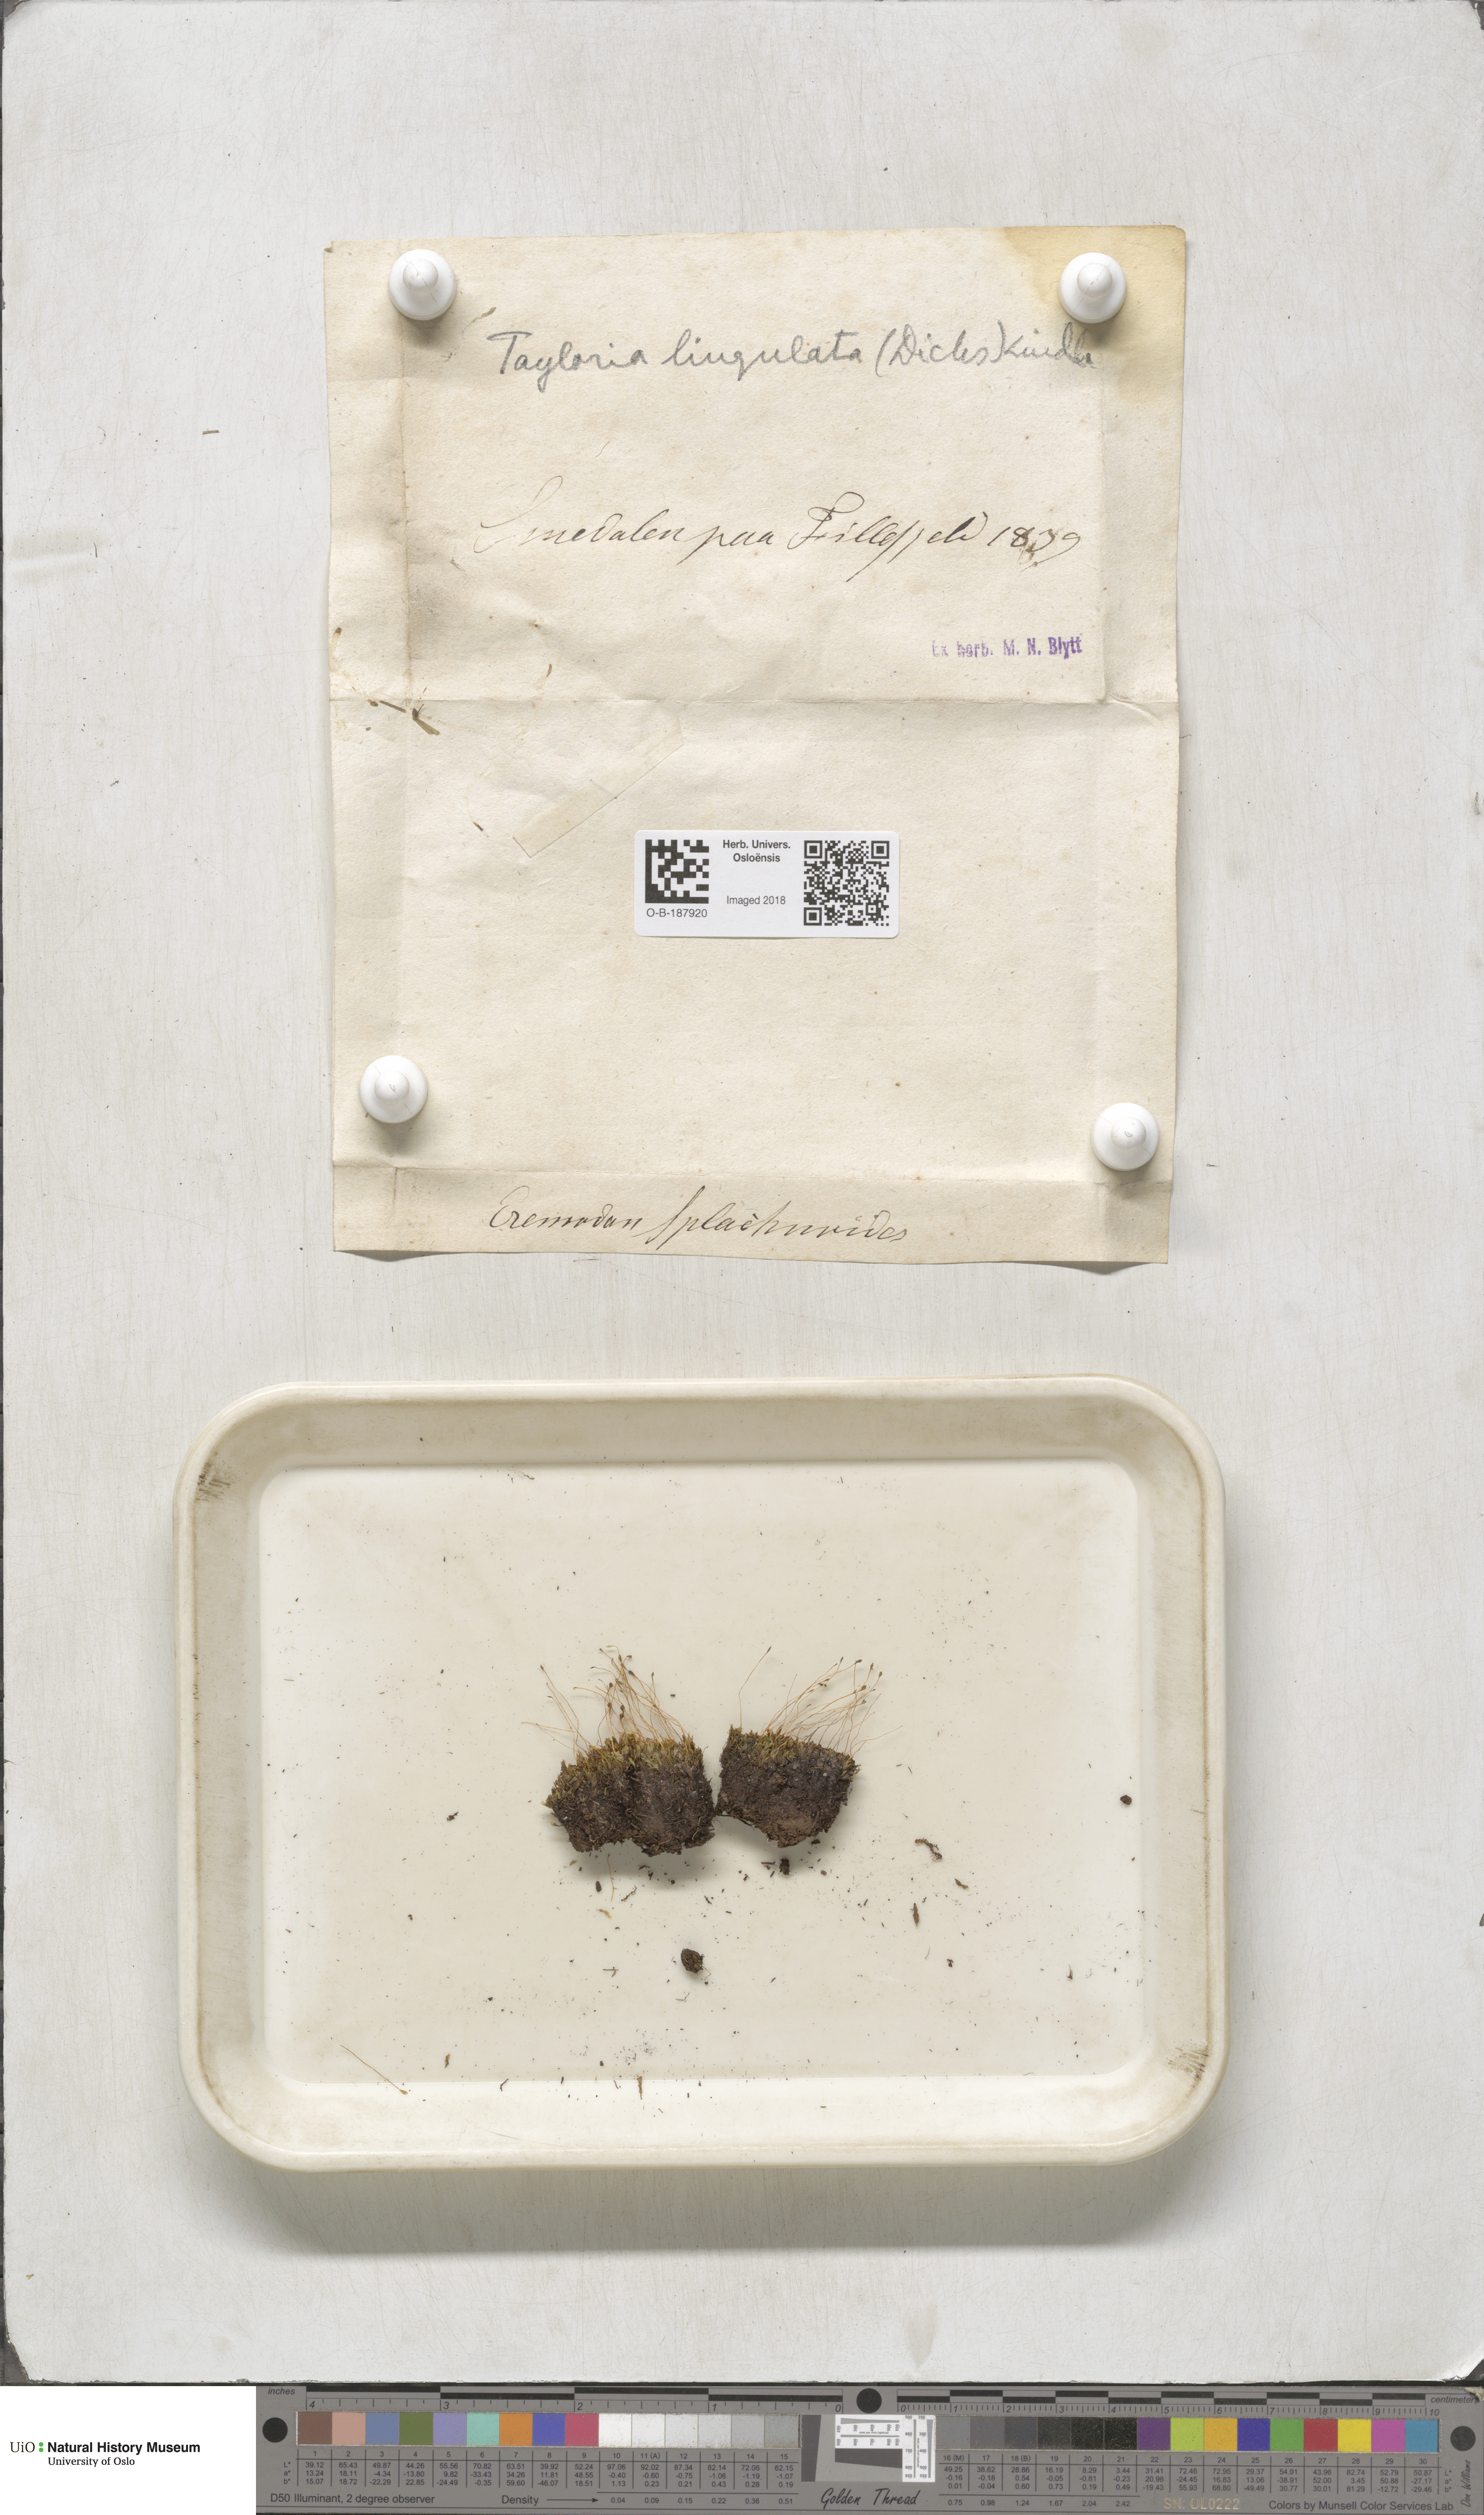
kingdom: Plantae
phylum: Bryophyta
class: Bryopsida
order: Splachnales
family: Splachnaceae
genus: Tayloria
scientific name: Tayloria lingulata
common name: Tongue-leaved trumpet moss
